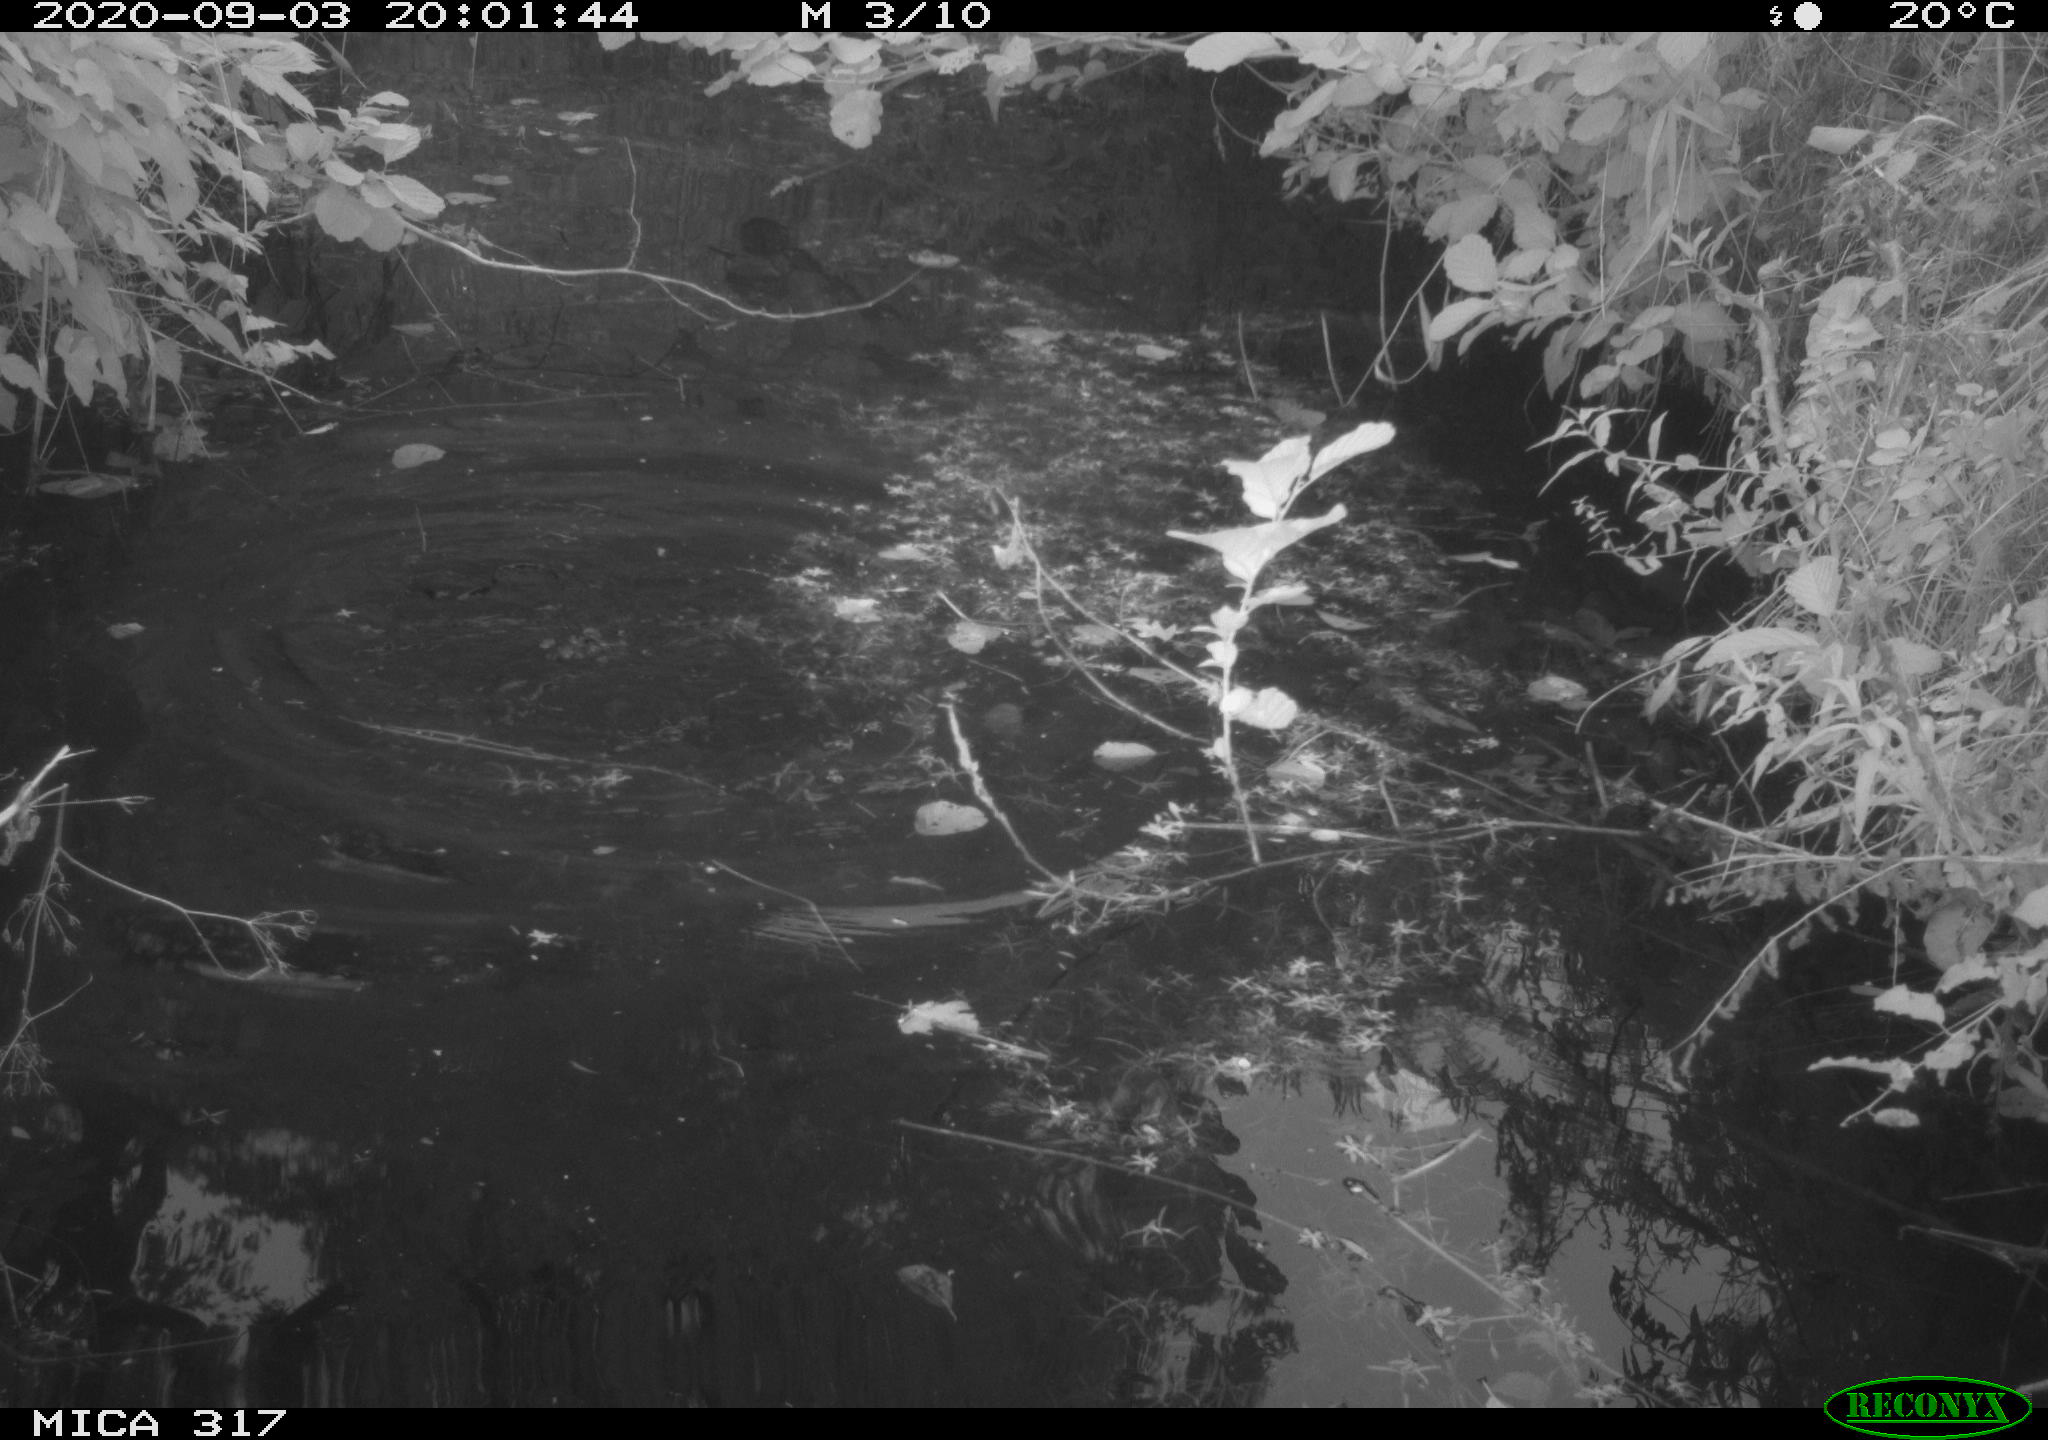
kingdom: Animalia
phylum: Chordata
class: Aves
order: Gruiformes
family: Rallidae
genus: Fulica
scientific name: Fulica atra
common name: Eurasian coot
